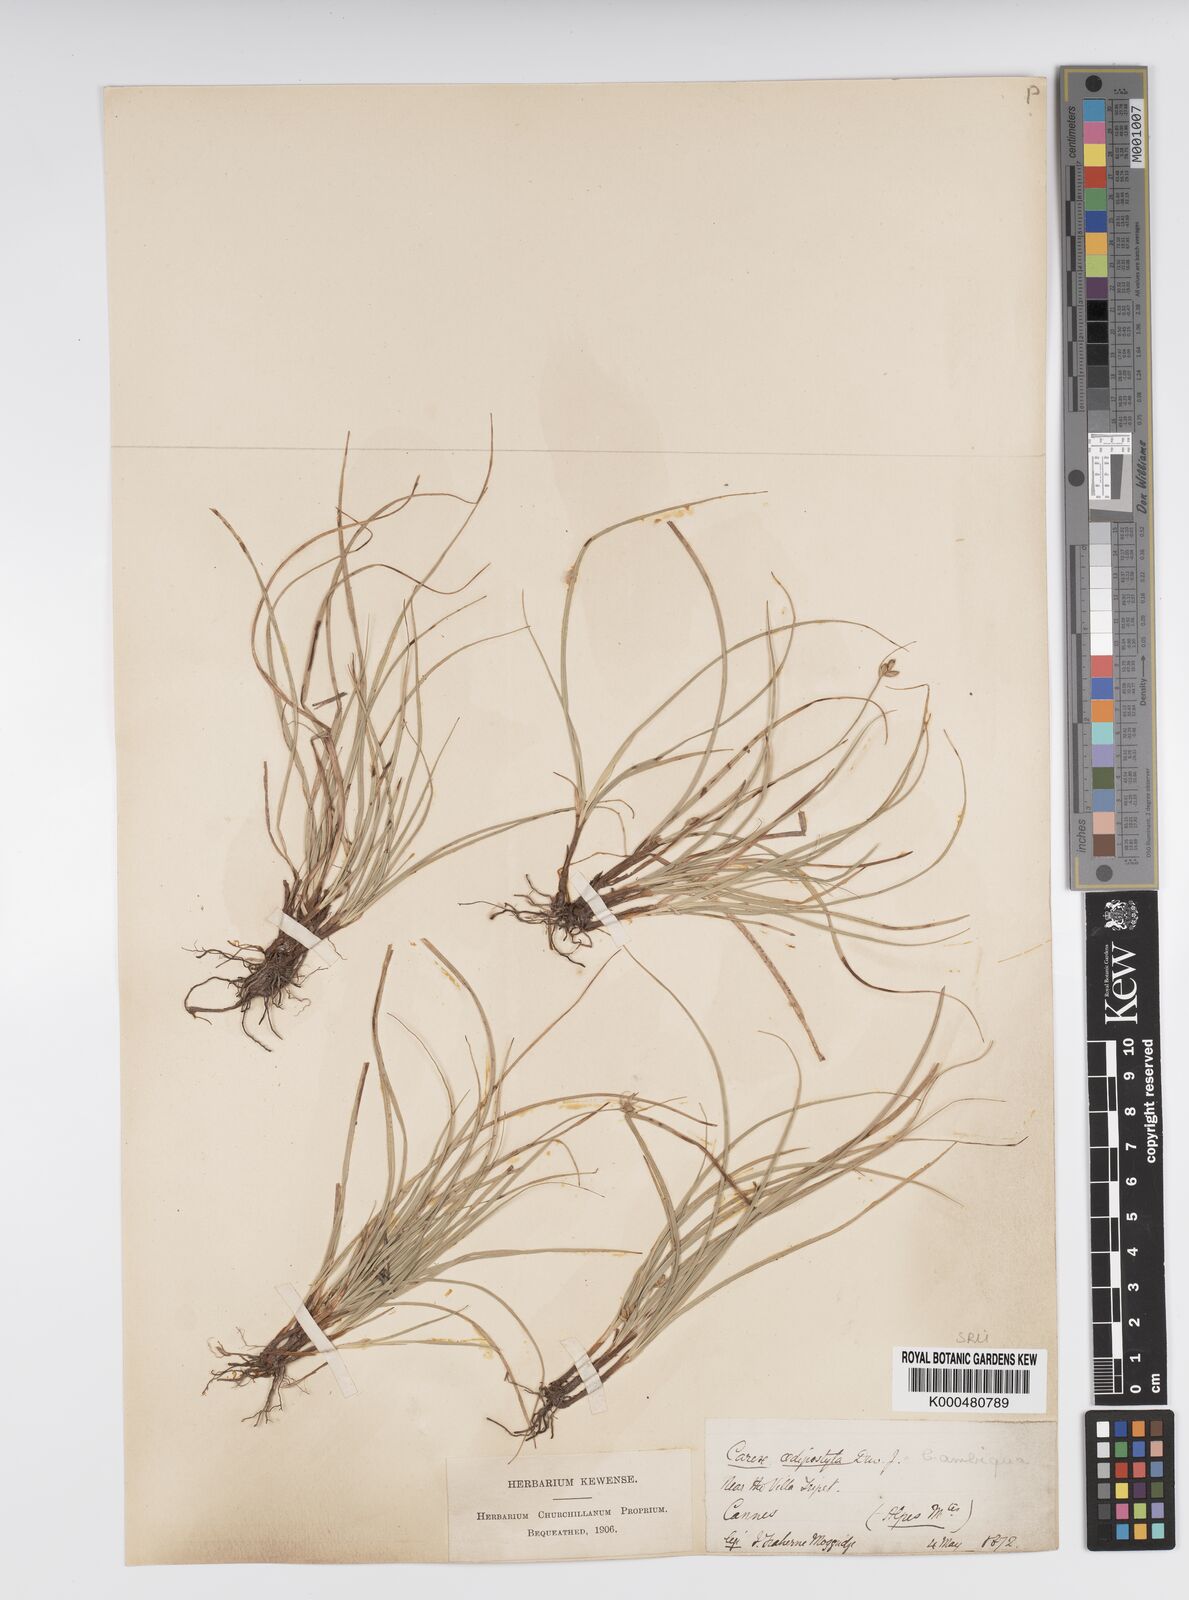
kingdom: Plantae
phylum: Tracheophyta
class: Liliopsida
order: Poales
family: Cyperaceae
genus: Carex
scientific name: Carex oedipostyla
